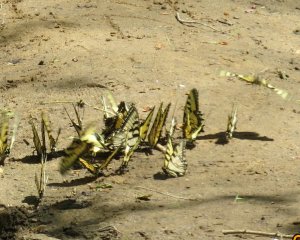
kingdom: Animalia
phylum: Arthropoda
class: Insecta
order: Lepidoptera
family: Papilionidae
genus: Pterourus
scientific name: Pterourus glaucus
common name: Eastern Tiger Swallowtail
